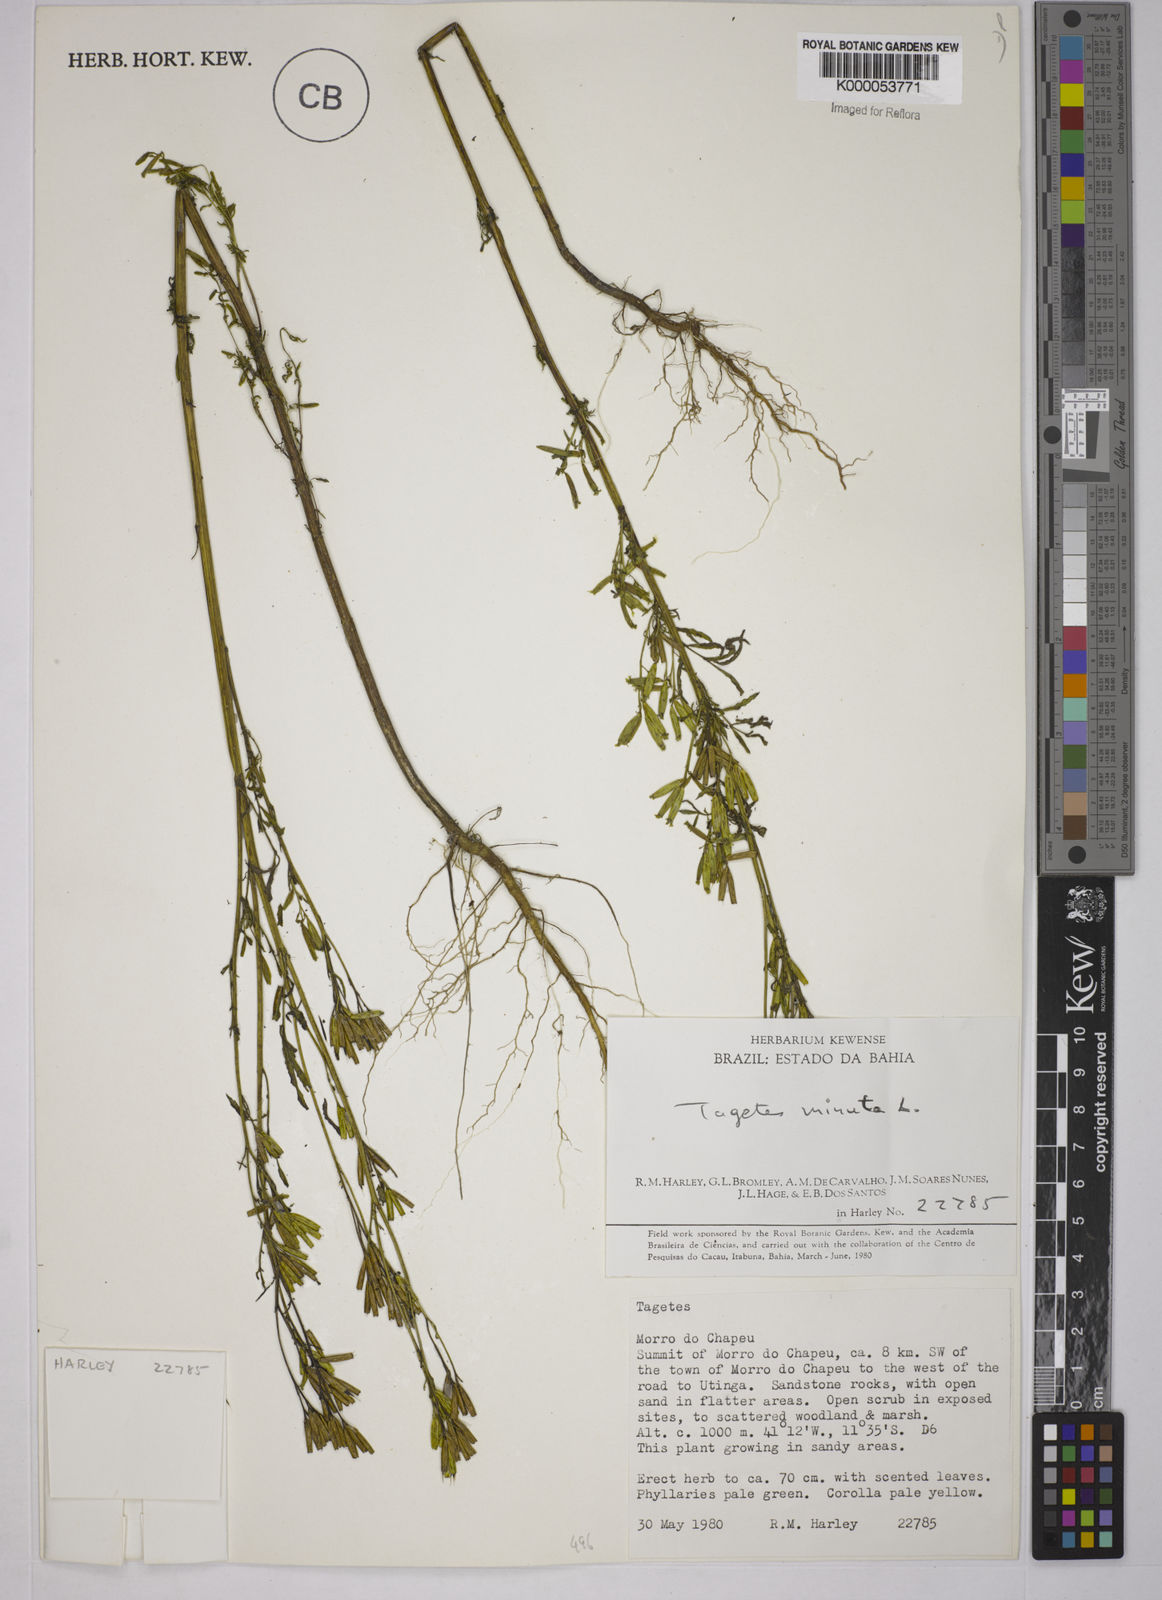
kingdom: Plantae
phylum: Tracheophyta
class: Magnoliopsida
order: Asterales
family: Asteraceae
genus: Tagetes
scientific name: Tagetes minuta
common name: Muster john henry
